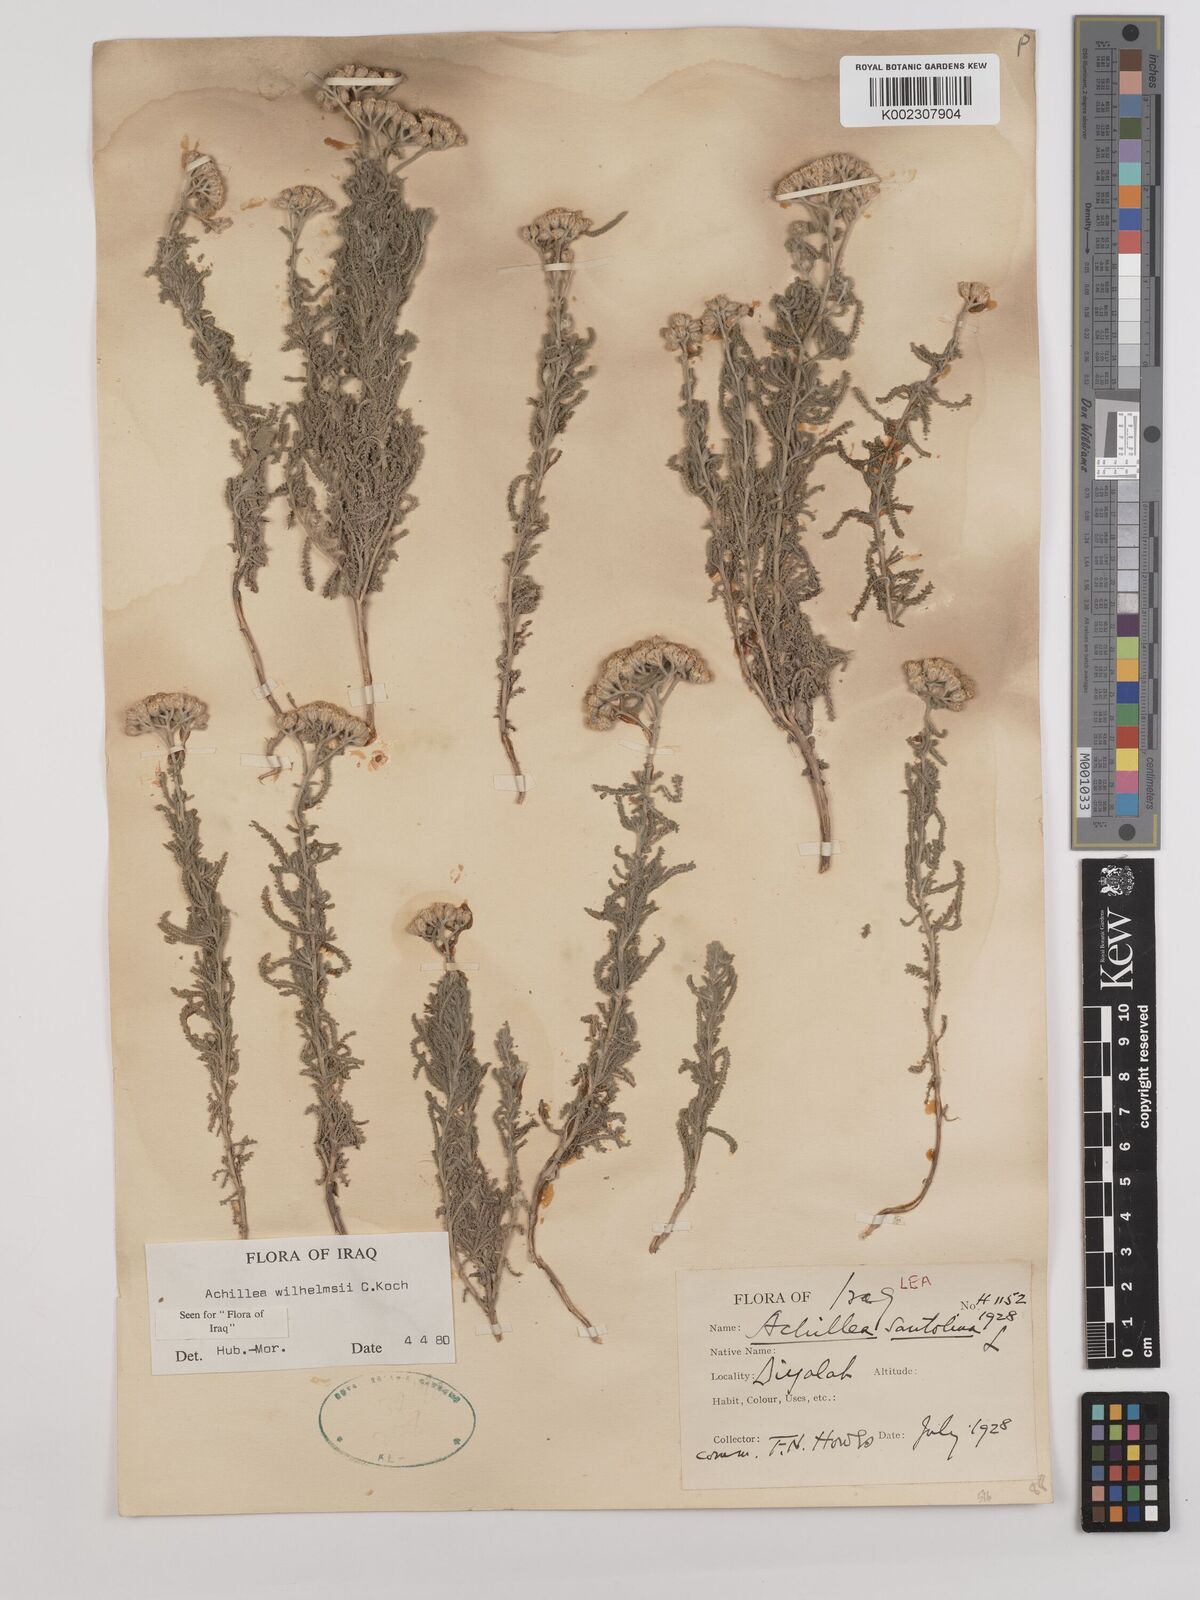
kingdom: Plantae
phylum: Tracheophyta
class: Magnoliopsida
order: Asterales
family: Asteraceae
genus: Achillea
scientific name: Achillea wilhelmsii
